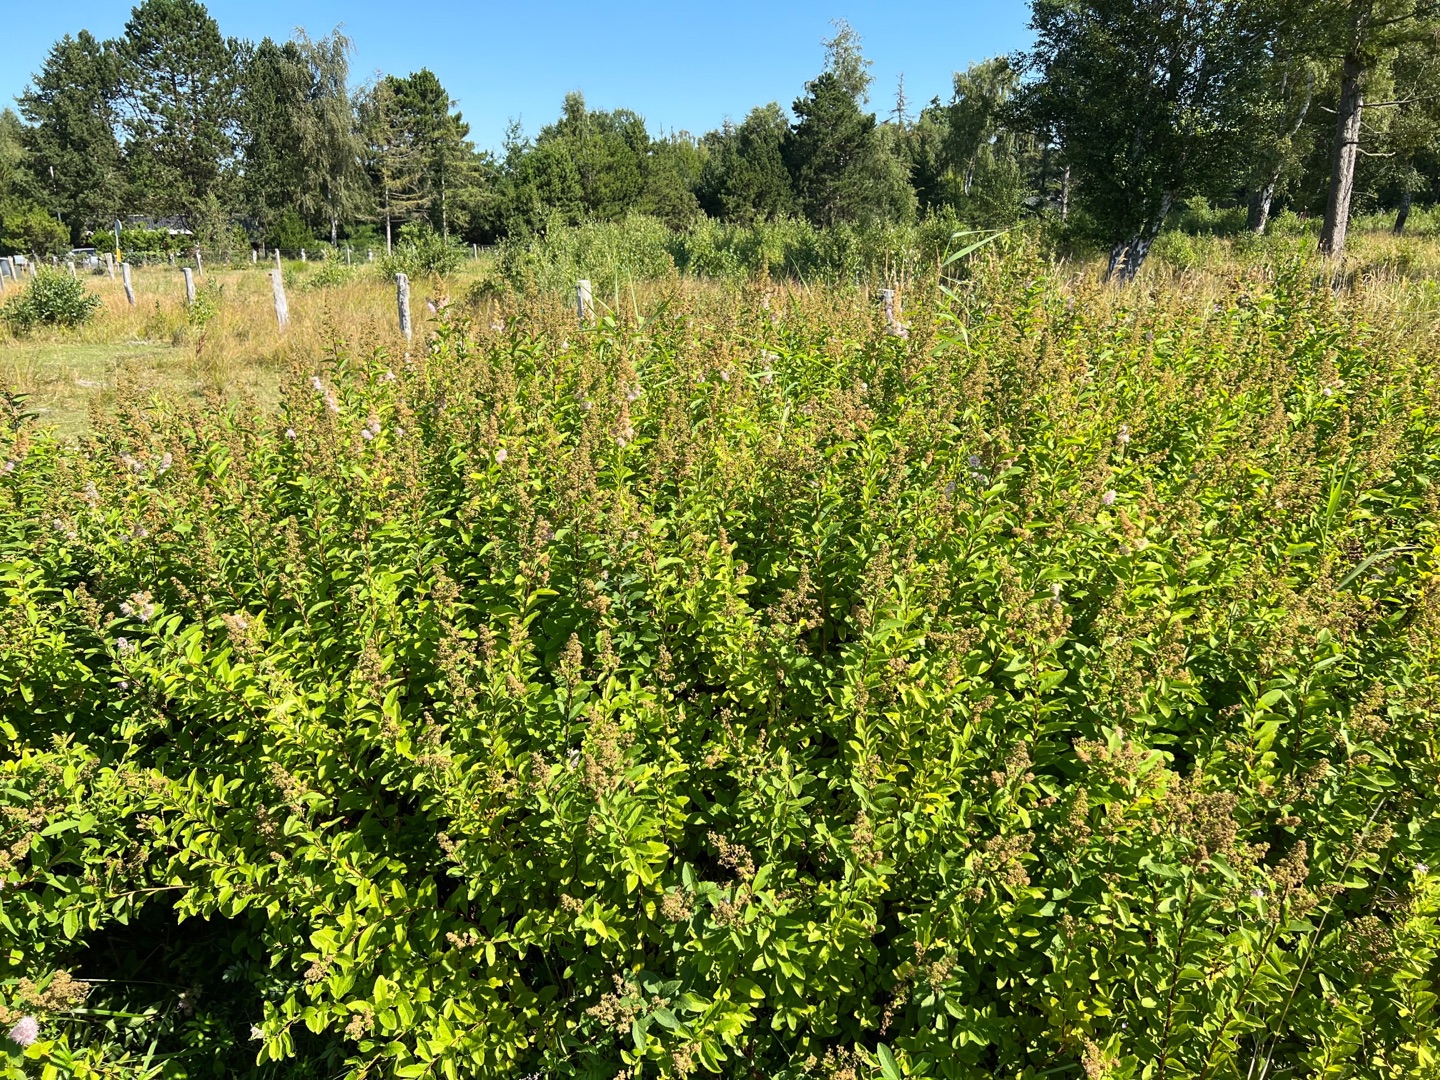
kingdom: Plantae
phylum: Tracheophyta
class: Magnoliopsida
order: Rosales
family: Rosaceae
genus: Spiraea
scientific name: Spiraea rosalba
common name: Bleg spiræa
